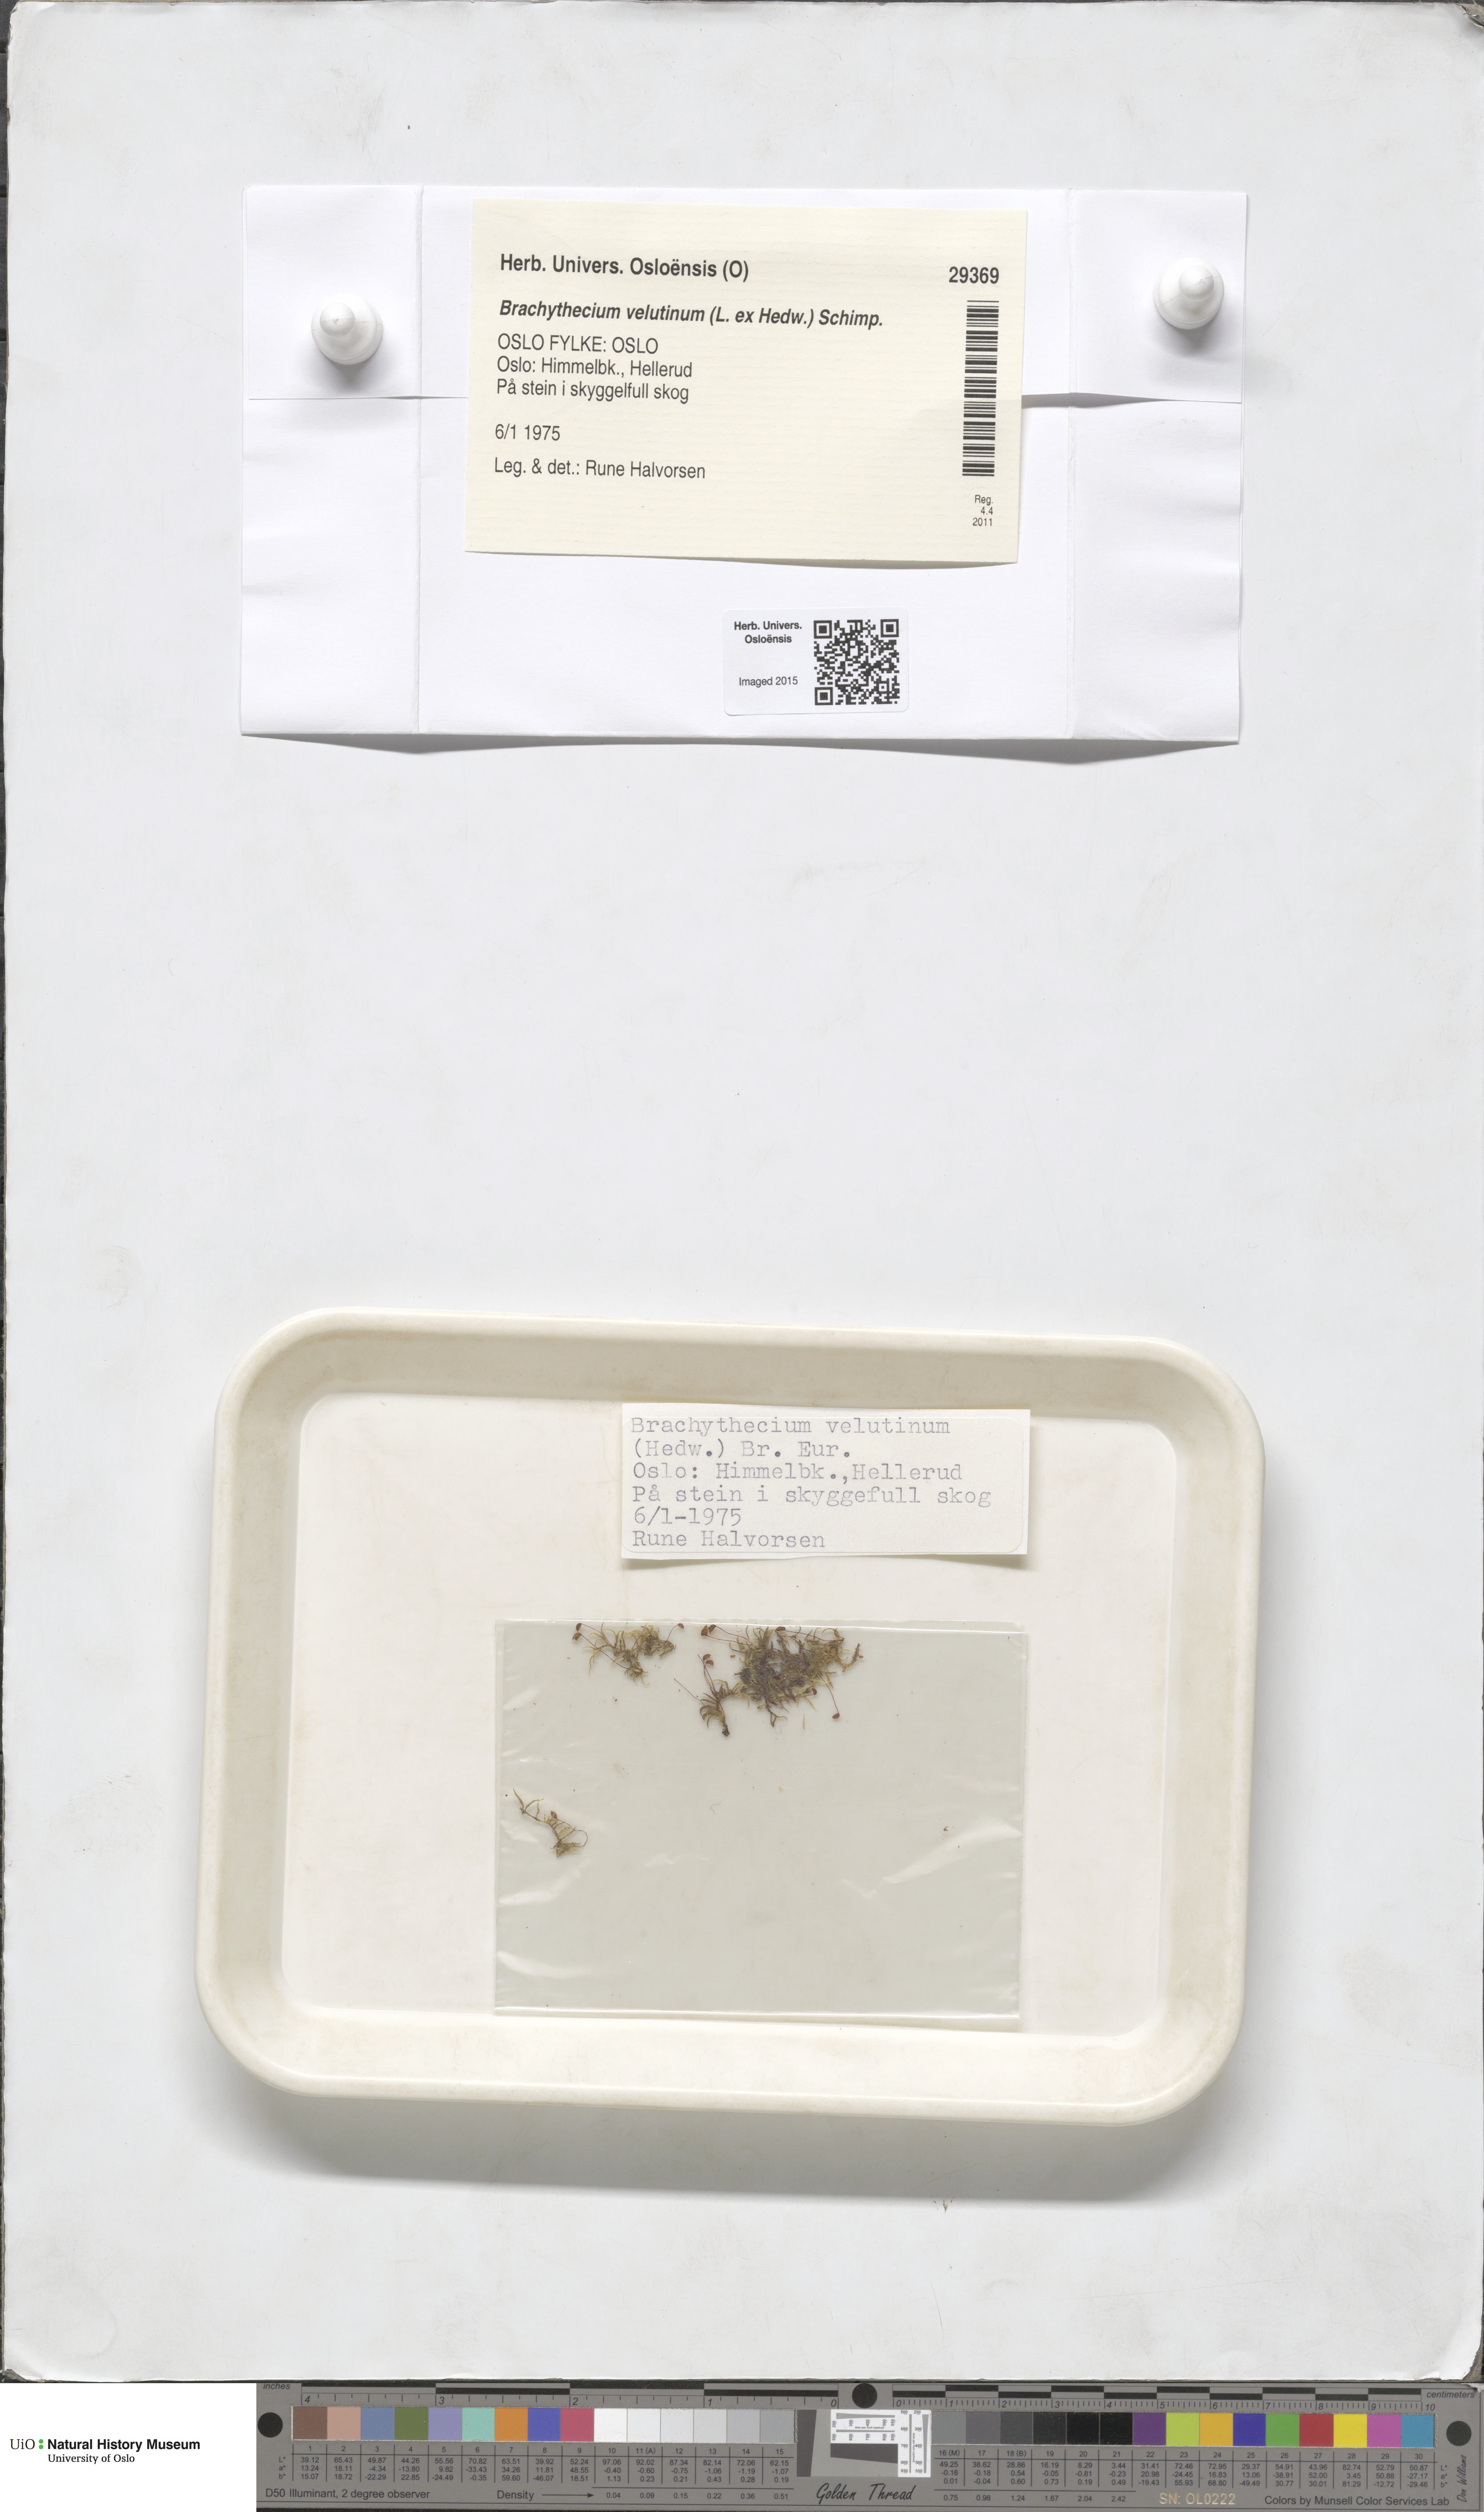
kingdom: Plantae
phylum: Bryophyta
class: Bryopsida
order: Hypnales
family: Brachytheciaceae
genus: Brachytheciastrum
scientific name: Brachytheciastrum velutinum
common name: Velvet feather-moss
